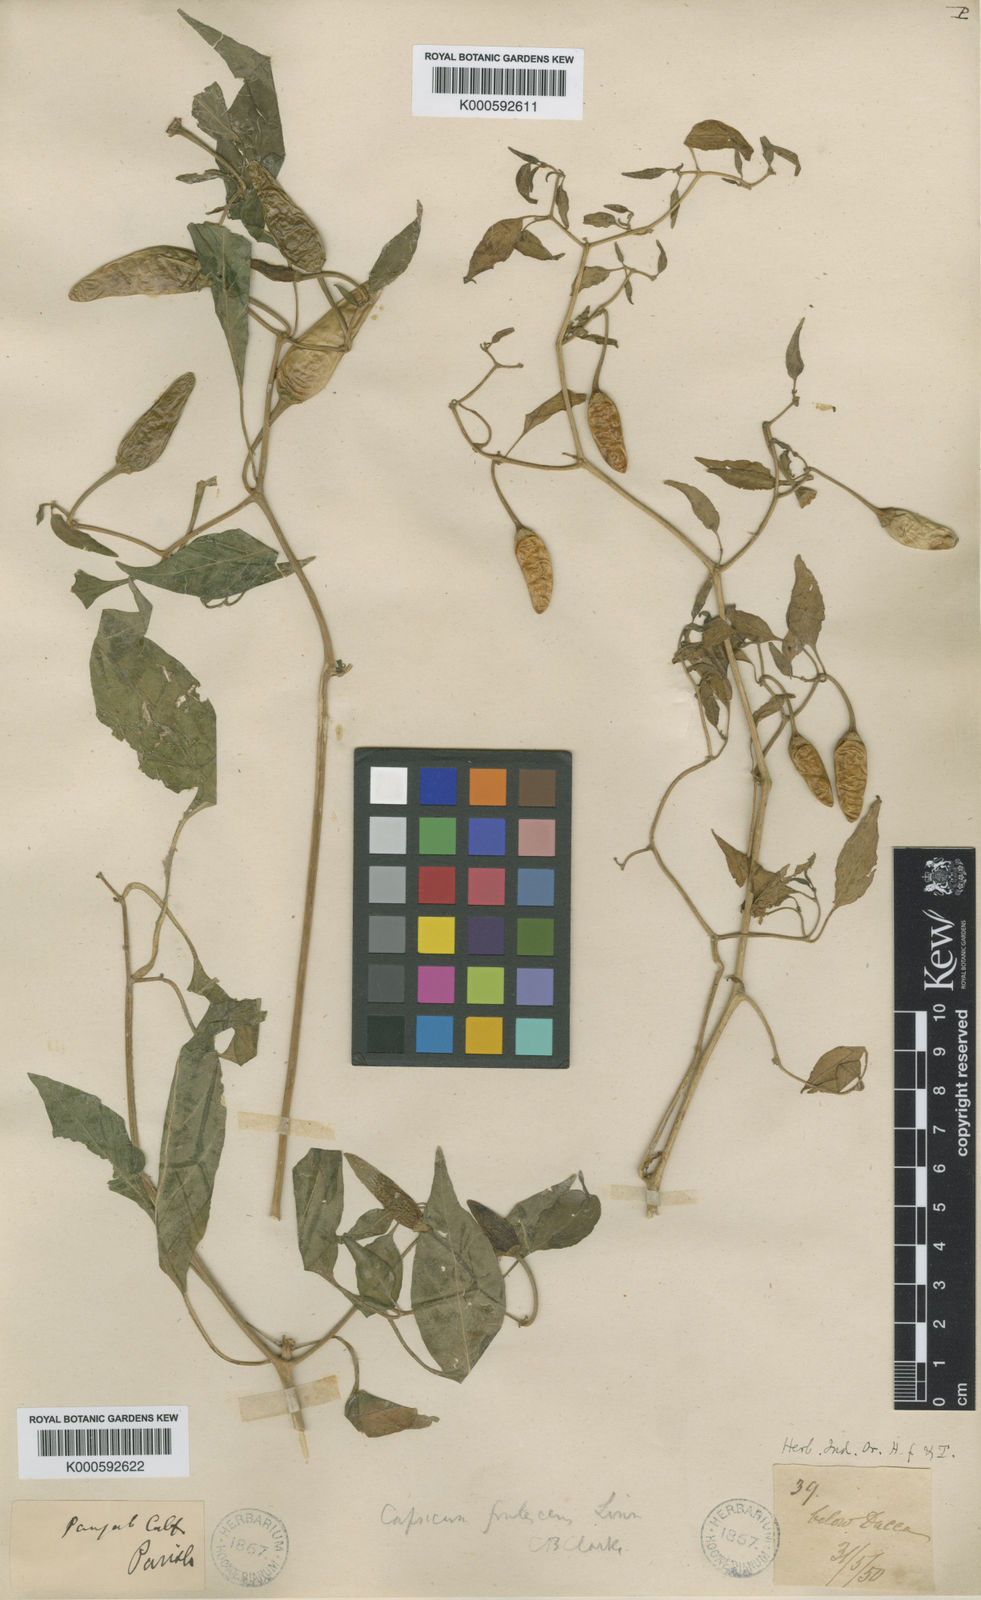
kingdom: Plantae
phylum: Tracheophyta
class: Magnoliopsida
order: Solanales
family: Solanaceae
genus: Capsicum
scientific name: Capsicum frutescens
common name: Bird pepper
